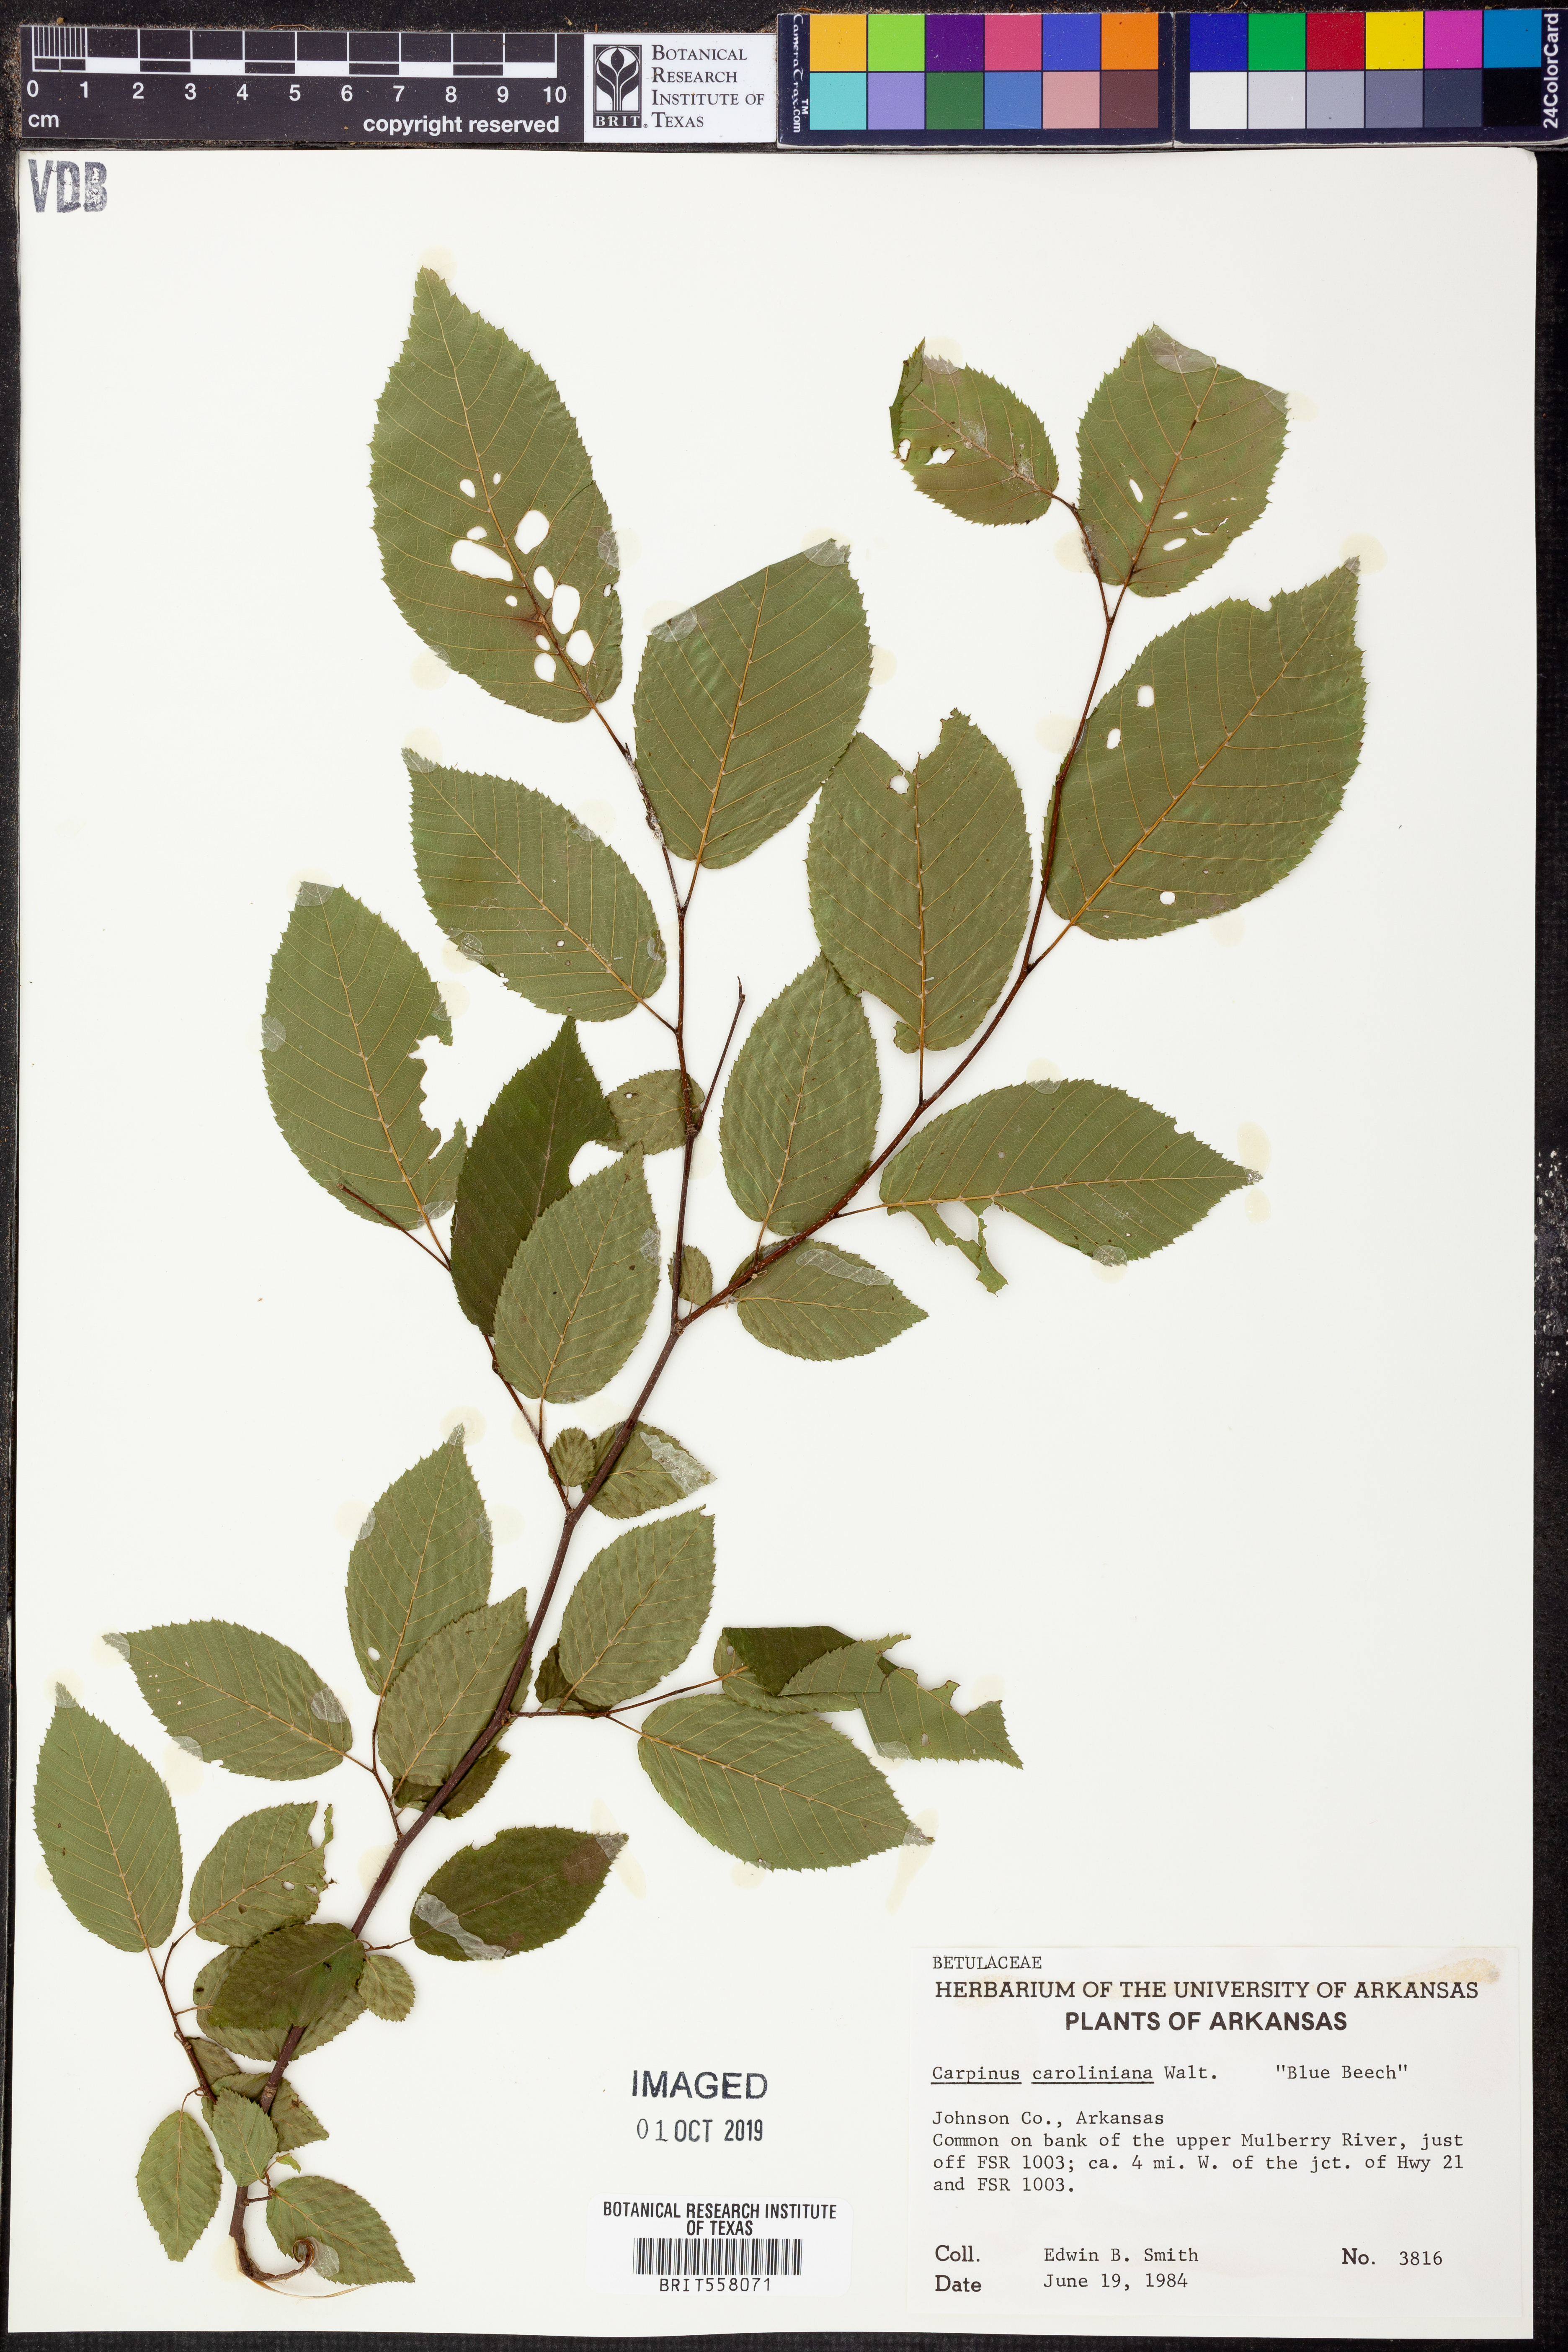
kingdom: Plantae
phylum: Tracheophyta
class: Magnoliopsida
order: Fagales
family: Betulaceae
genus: Carpinus
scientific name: Carpinus caroliniana
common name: American hornbeam
